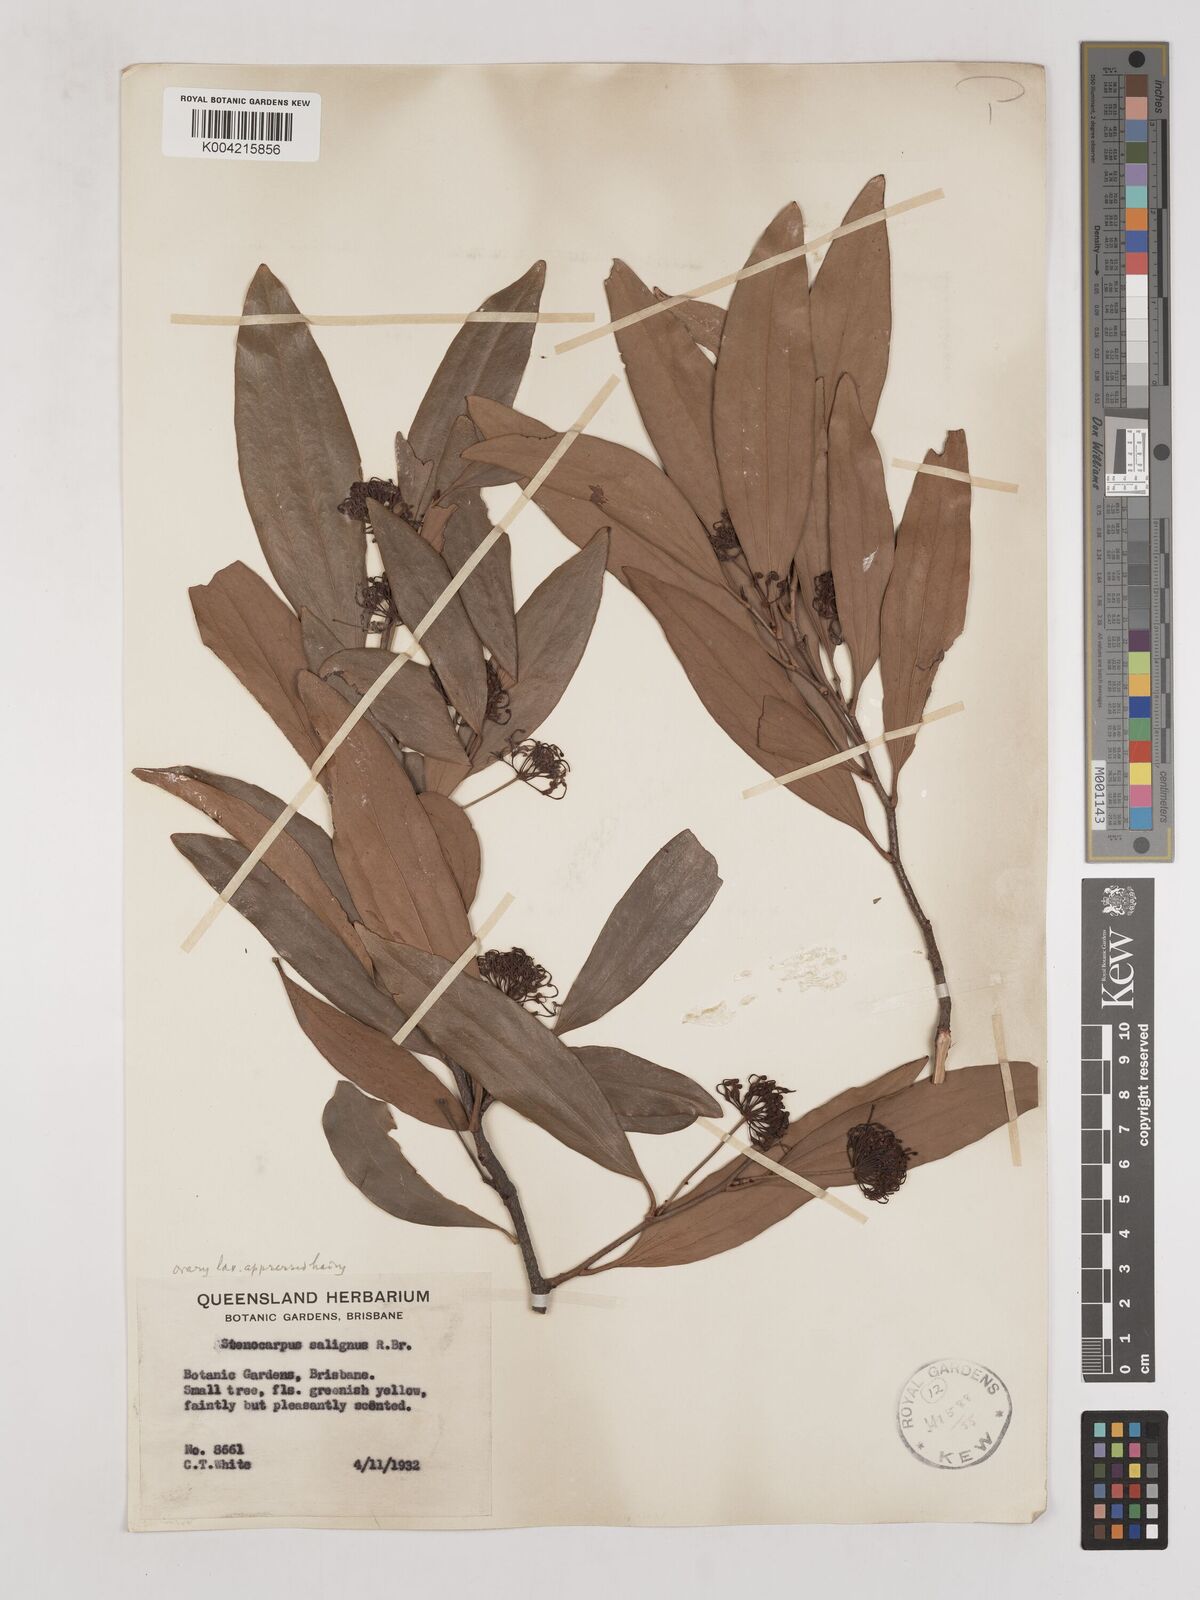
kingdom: Plantae
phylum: Tracheophyta
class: Magnoliopsida
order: Proteales
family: Proteaceae
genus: Stenocarpus
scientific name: Stenocarpus salignus
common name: Red silky-oak
